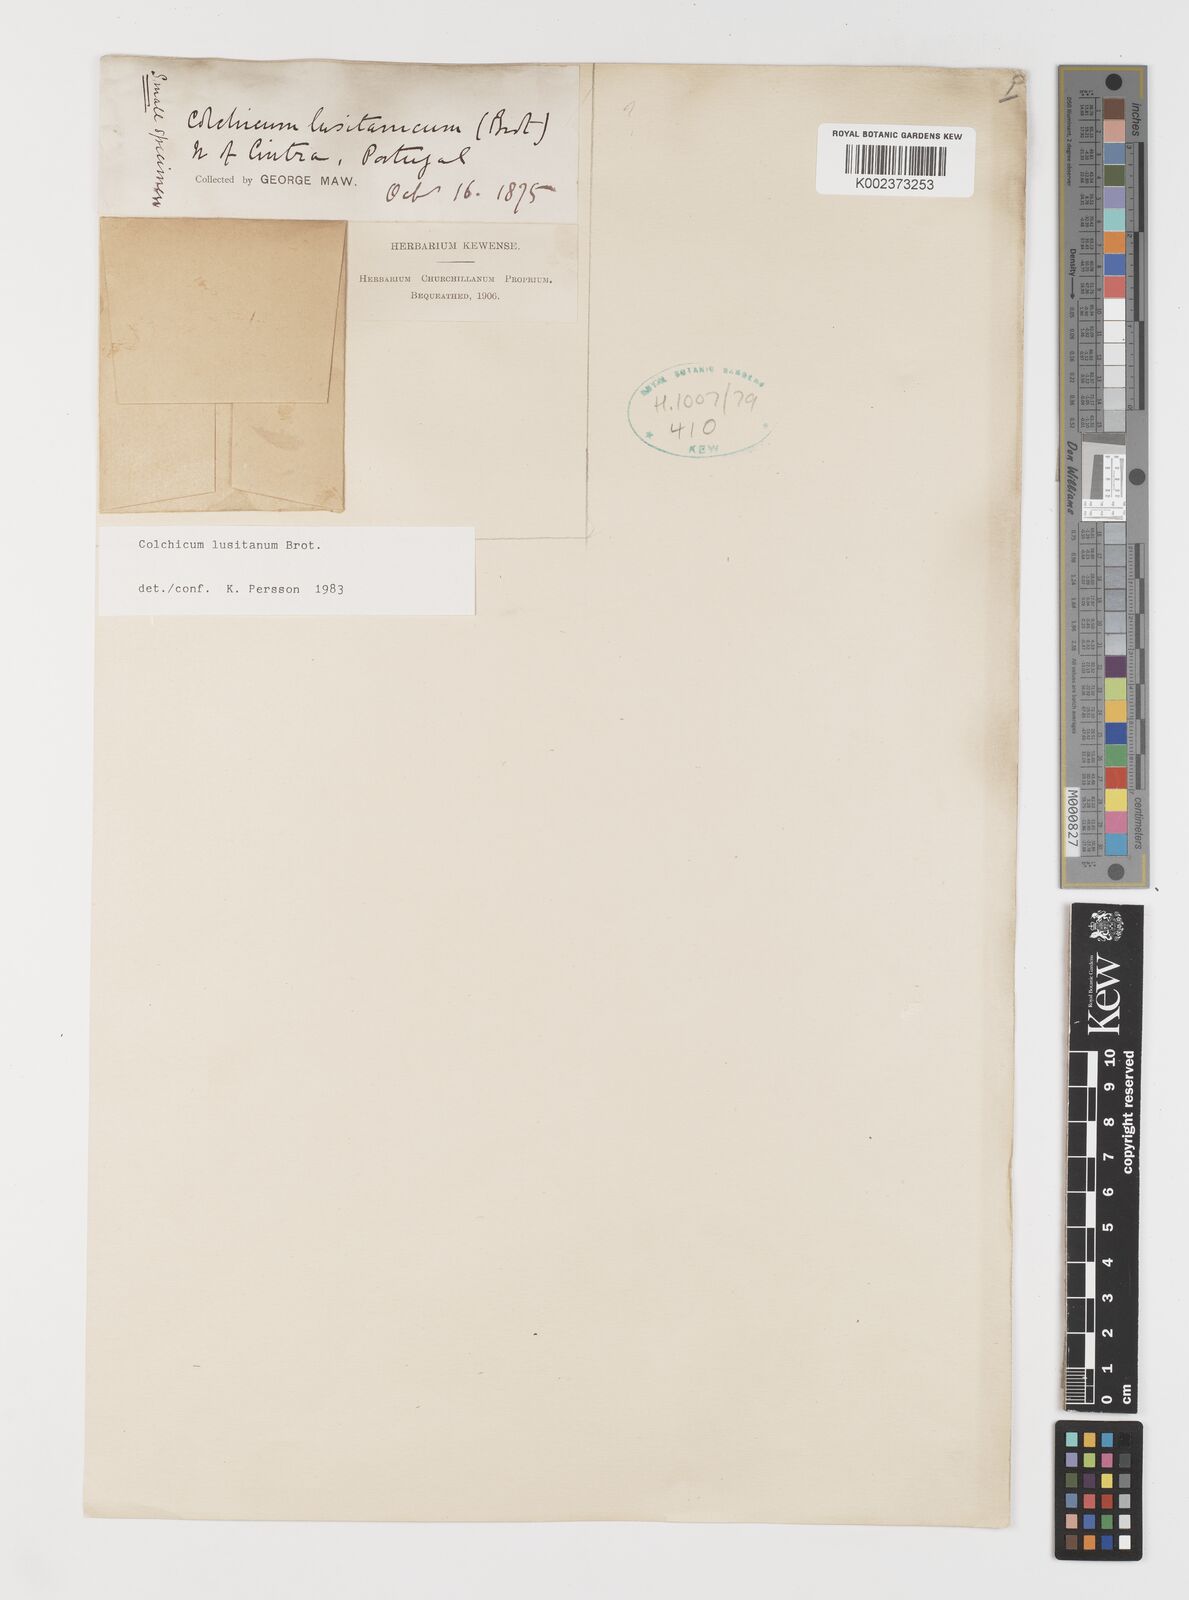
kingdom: Plantae
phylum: Tracheophyta
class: Liliopsida
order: Liliales
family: Colchicaceae
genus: Colchicum
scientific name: Colchicum lusitanum
